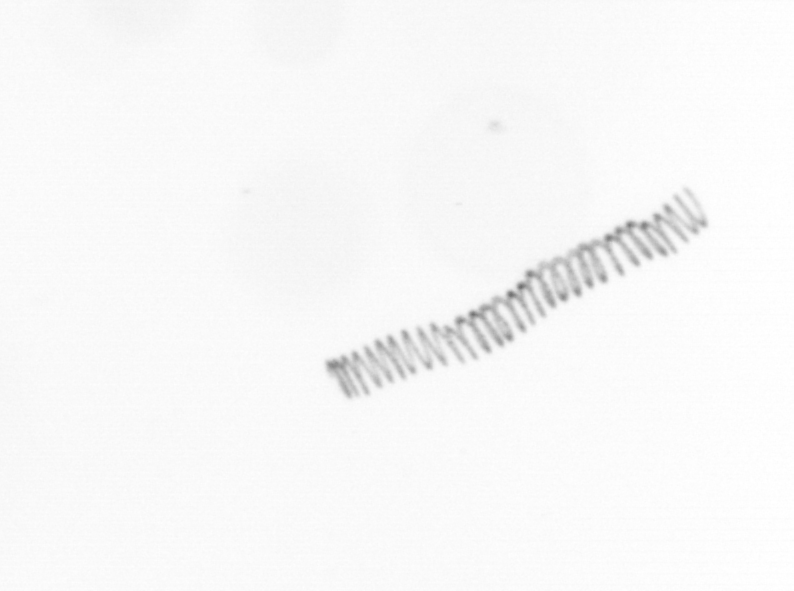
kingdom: Chromista
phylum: Ochrophyta
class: Bacillariophyceae
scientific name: Bacillariophyceae
